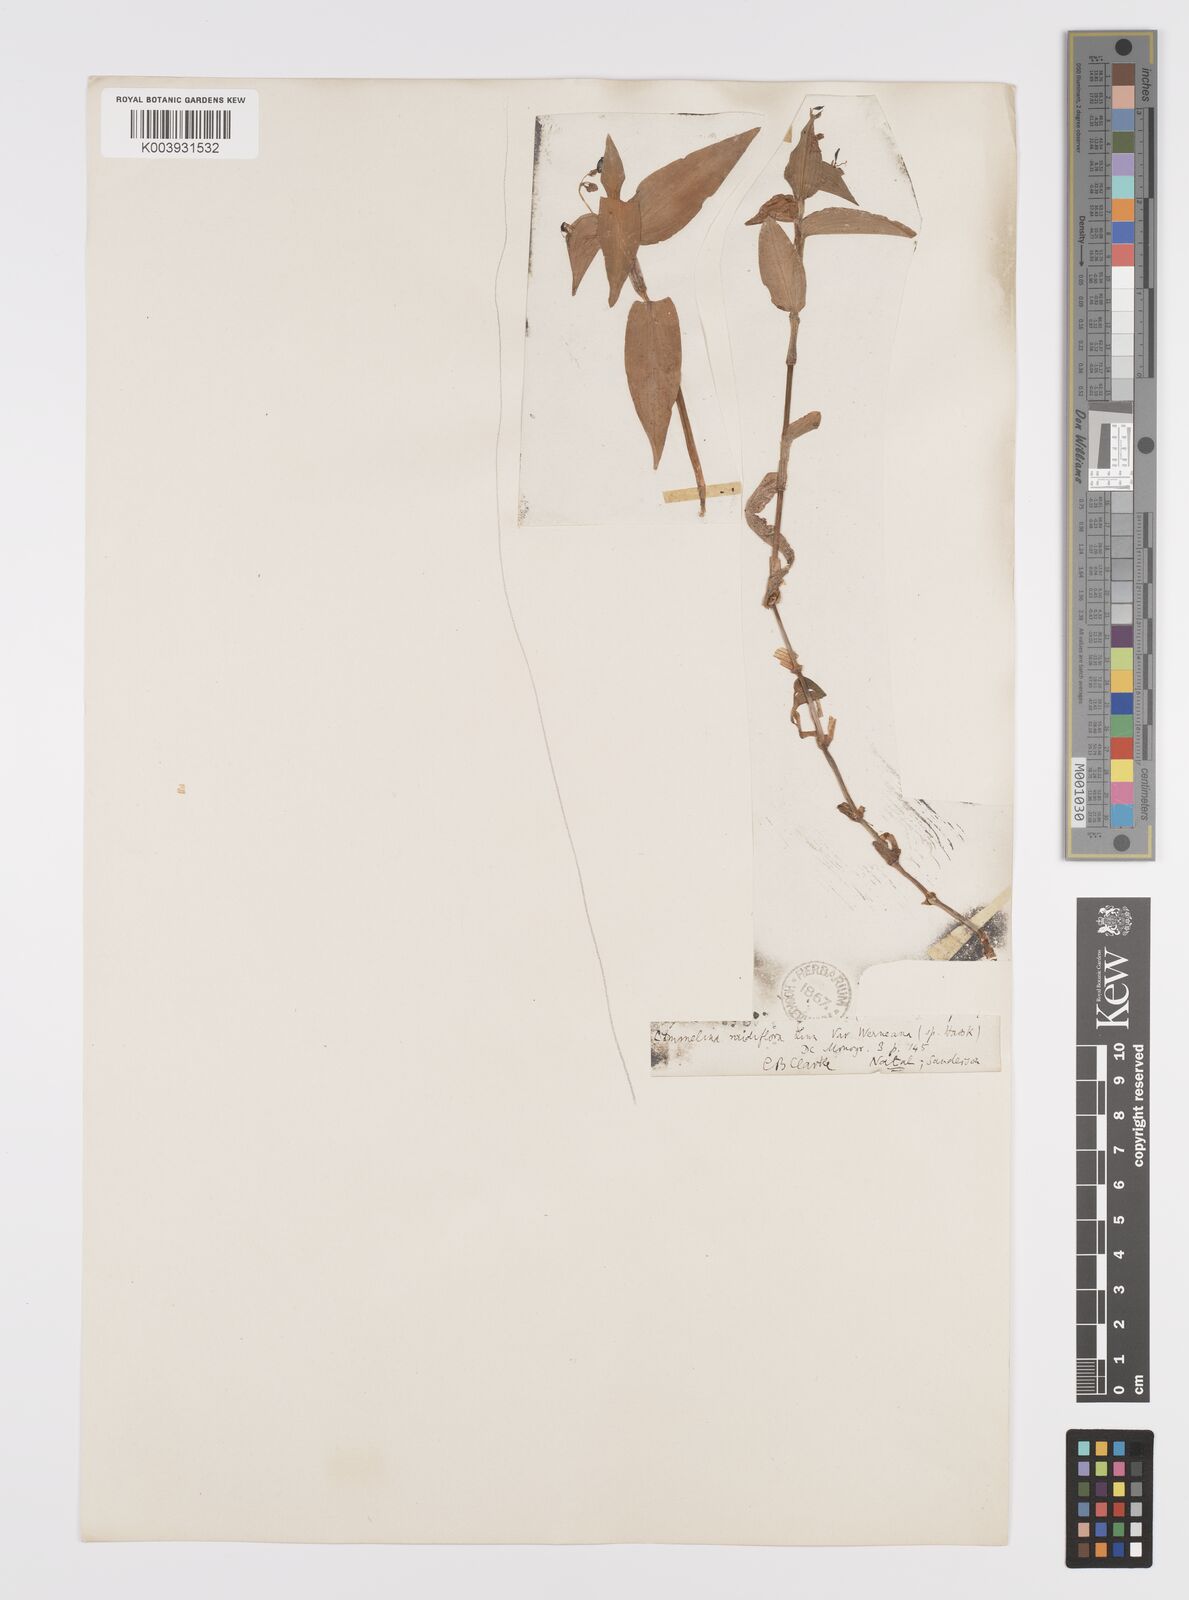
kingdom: Plantae
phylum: Tracheophyta
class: Liliopsida
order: Commelinales
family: Commelinaceae
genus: Commelina
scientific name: Commelina diffusa
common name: Climbing dayflower
